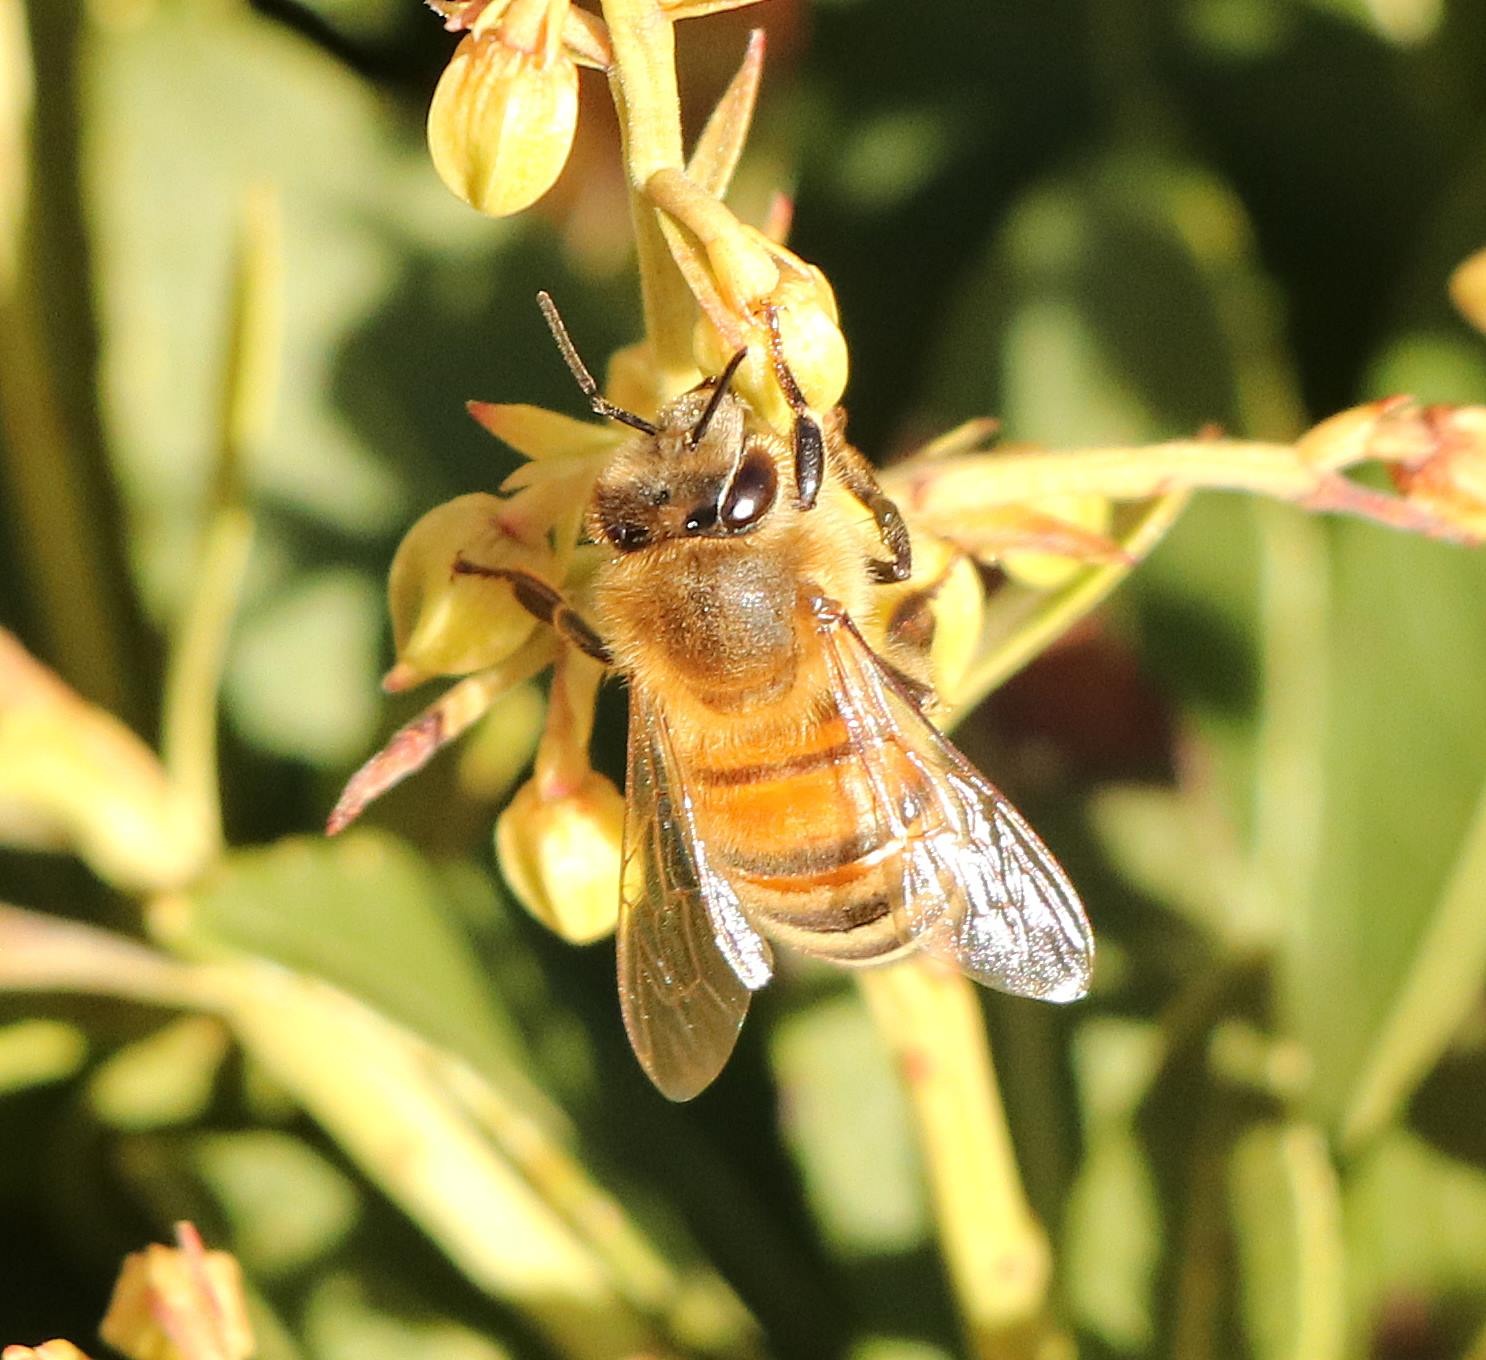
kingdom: Animalia
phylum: Arthropoda
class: Insecta
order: Hymenoptera
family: Apidae
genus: Apis
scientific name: Apis mellifera
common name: Honningbi
